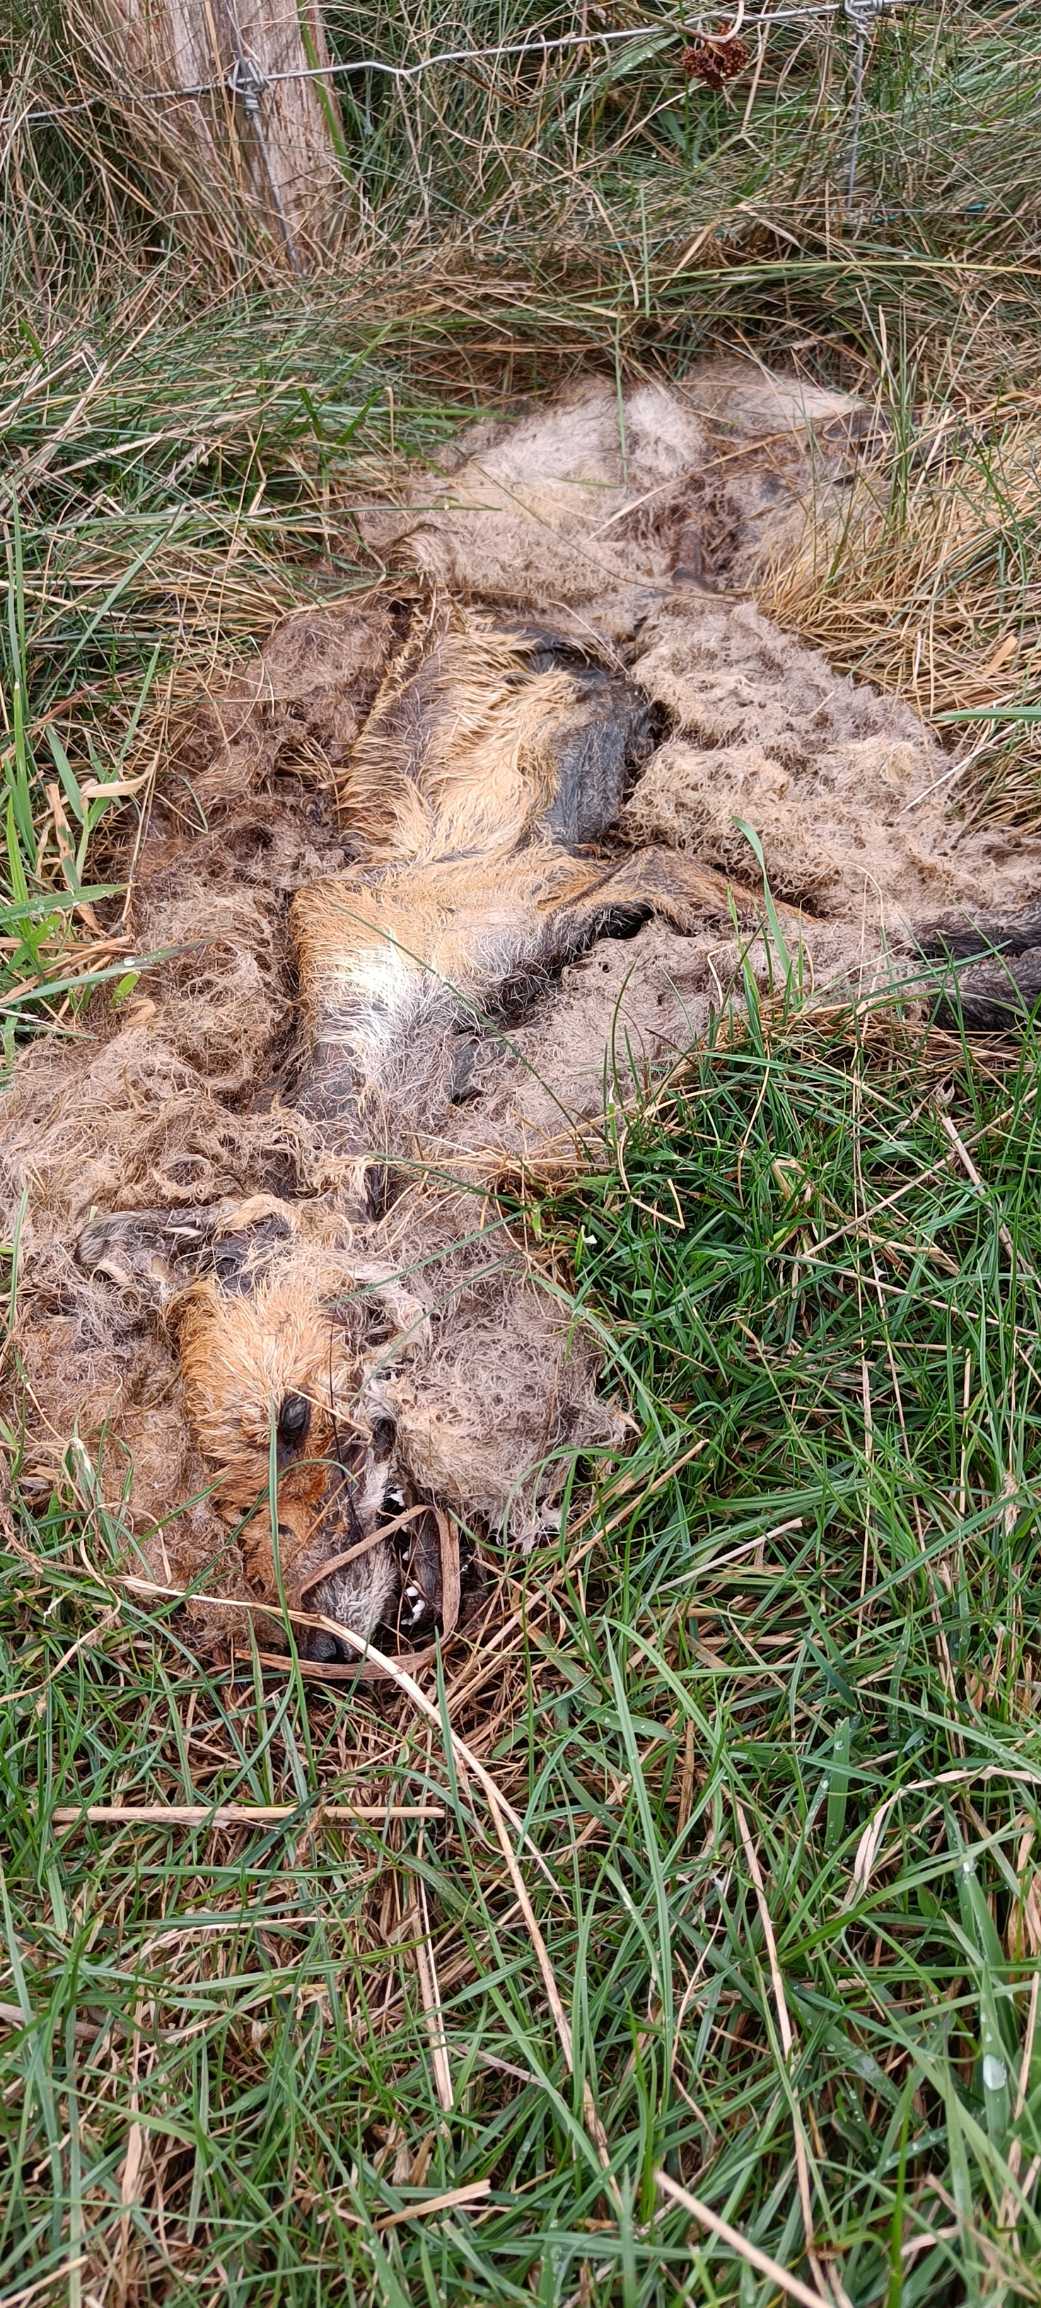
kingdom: Animalia
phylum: Chordata
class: Mammalia
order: Carnivora
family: Canidae
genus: Vulpes
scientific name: Vulpes vulpes
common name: Ræv
